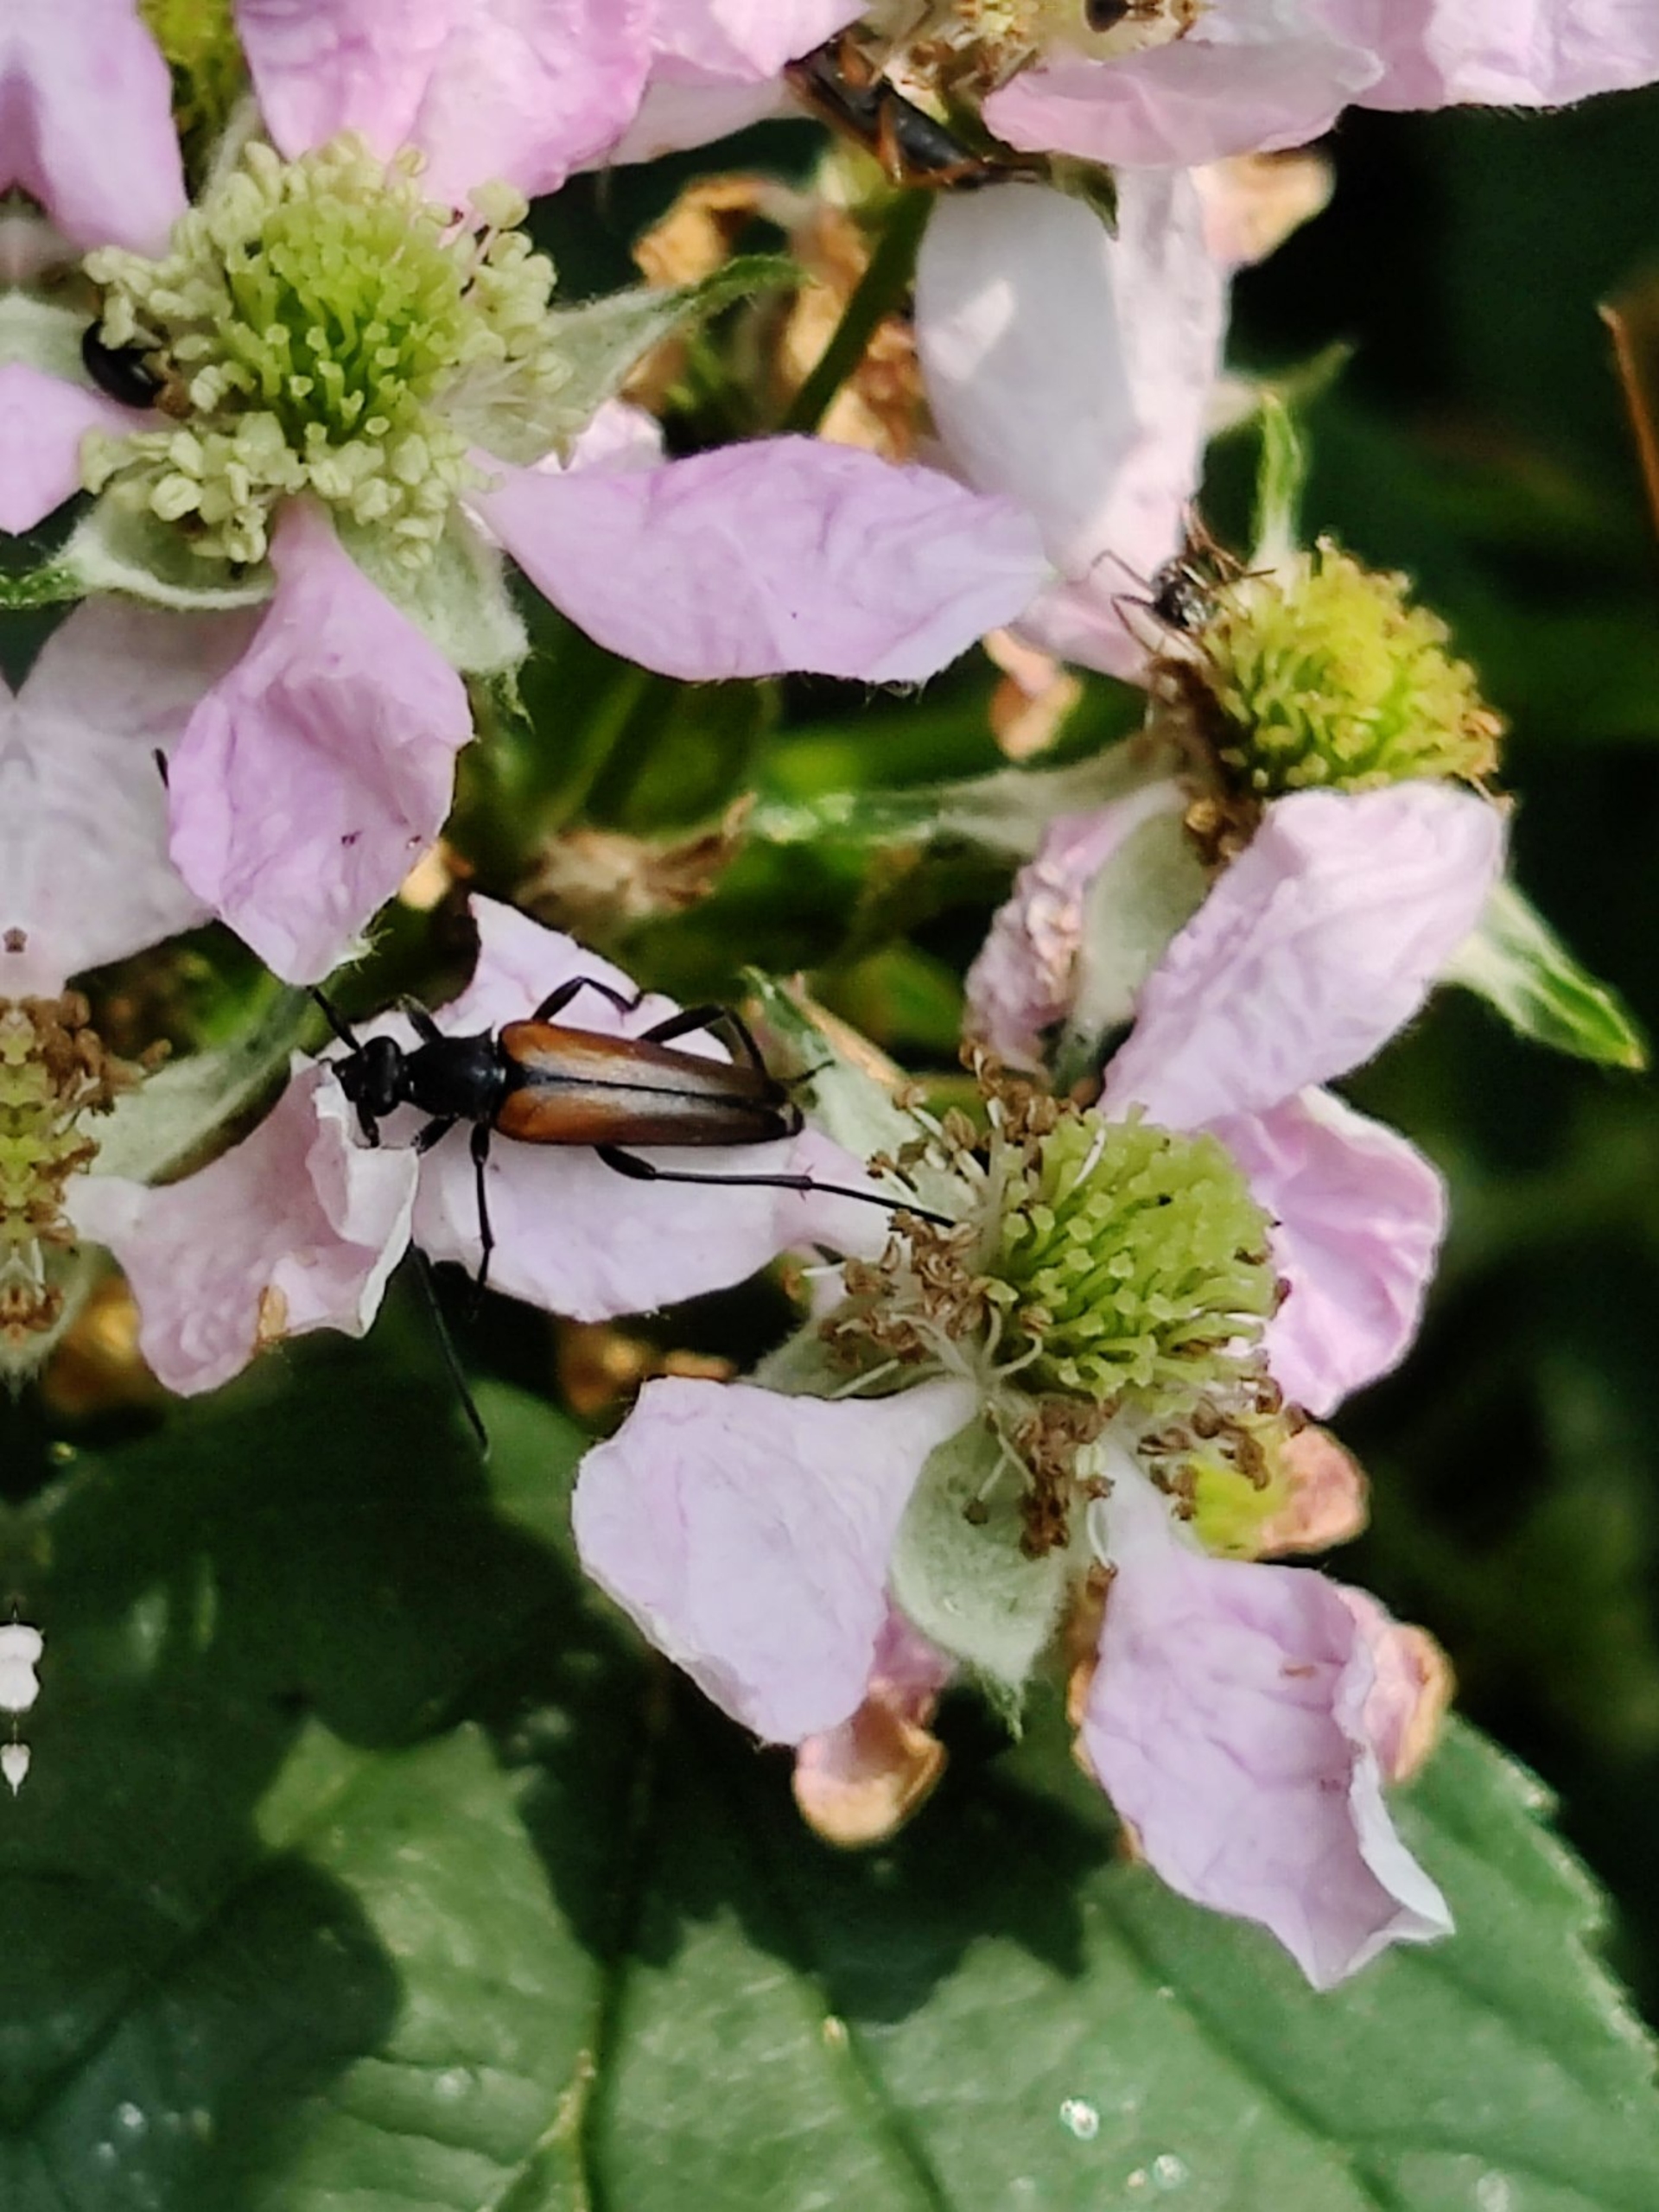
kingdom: Animalia
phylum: Arthropoda
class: Insecta
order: Coleoptera
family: Cerambycidae
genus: Stenurella
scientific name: Stenurella melanura
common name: Sortsømmet blomsterbuk
